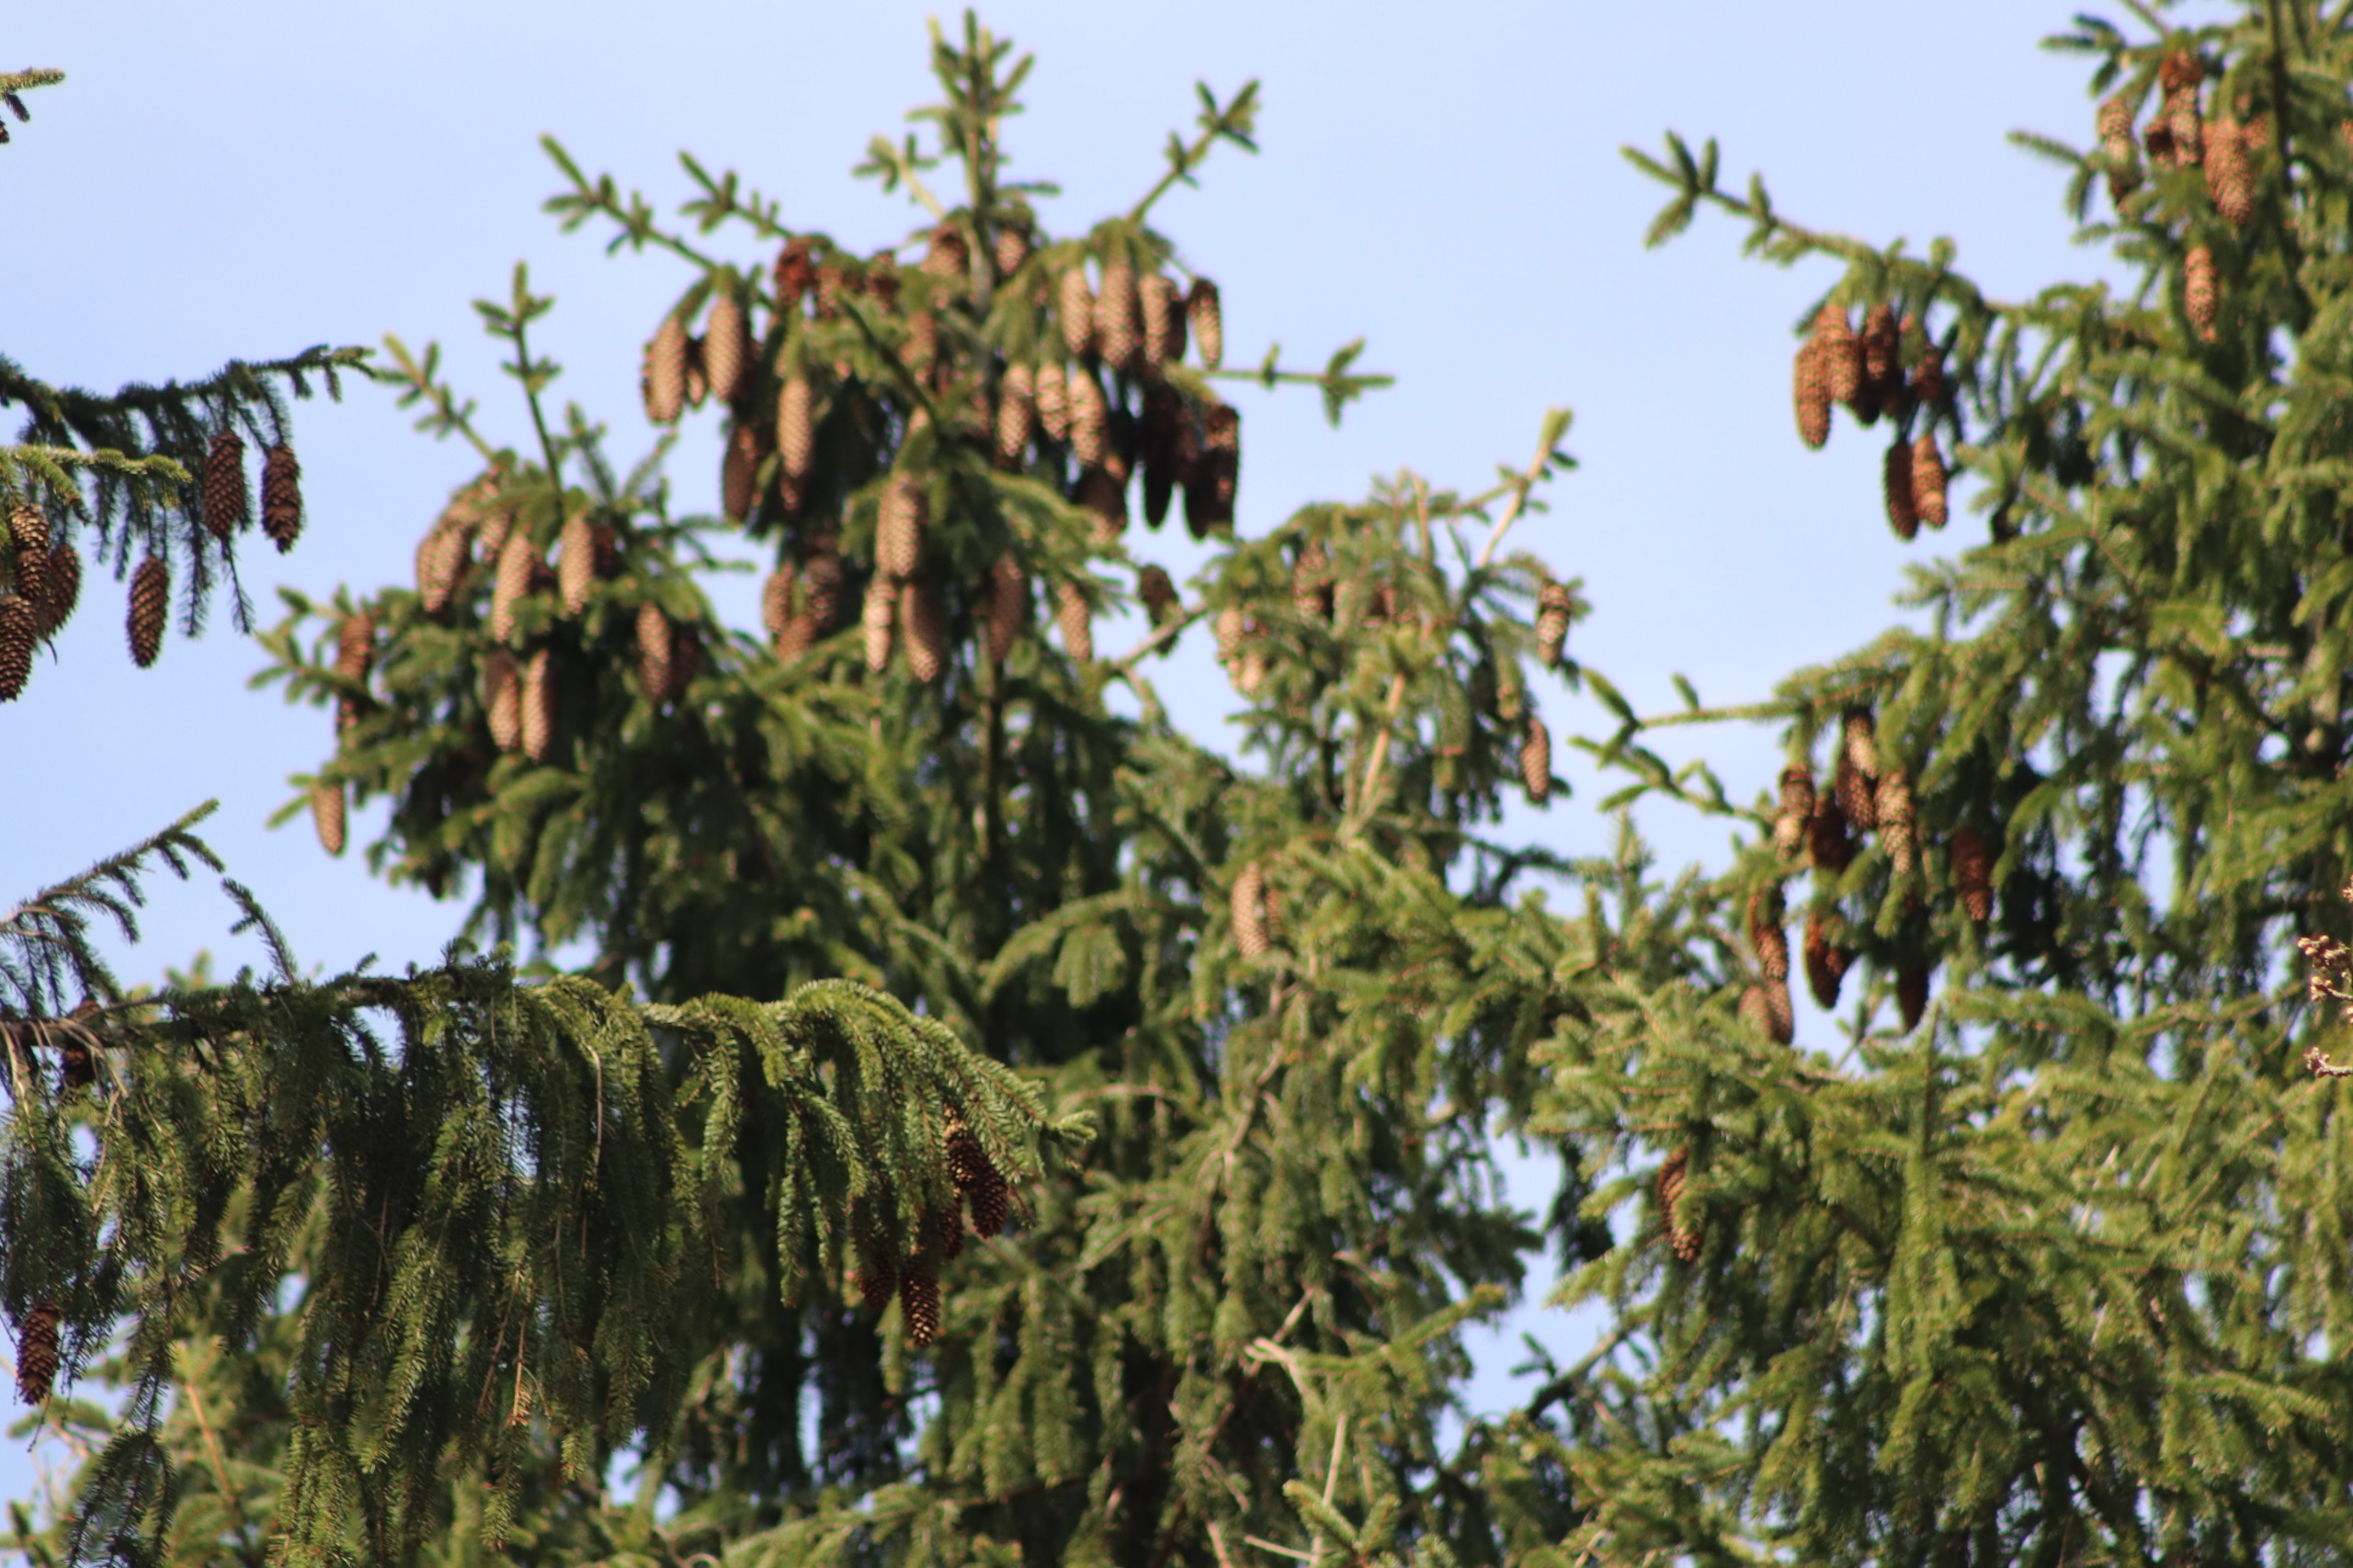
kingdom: Plantae
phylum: Tracheophyta
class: Pinopsida
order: Pinales
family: Pinaceae
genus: Picea
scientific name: Picea abies
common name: Rød-gran
